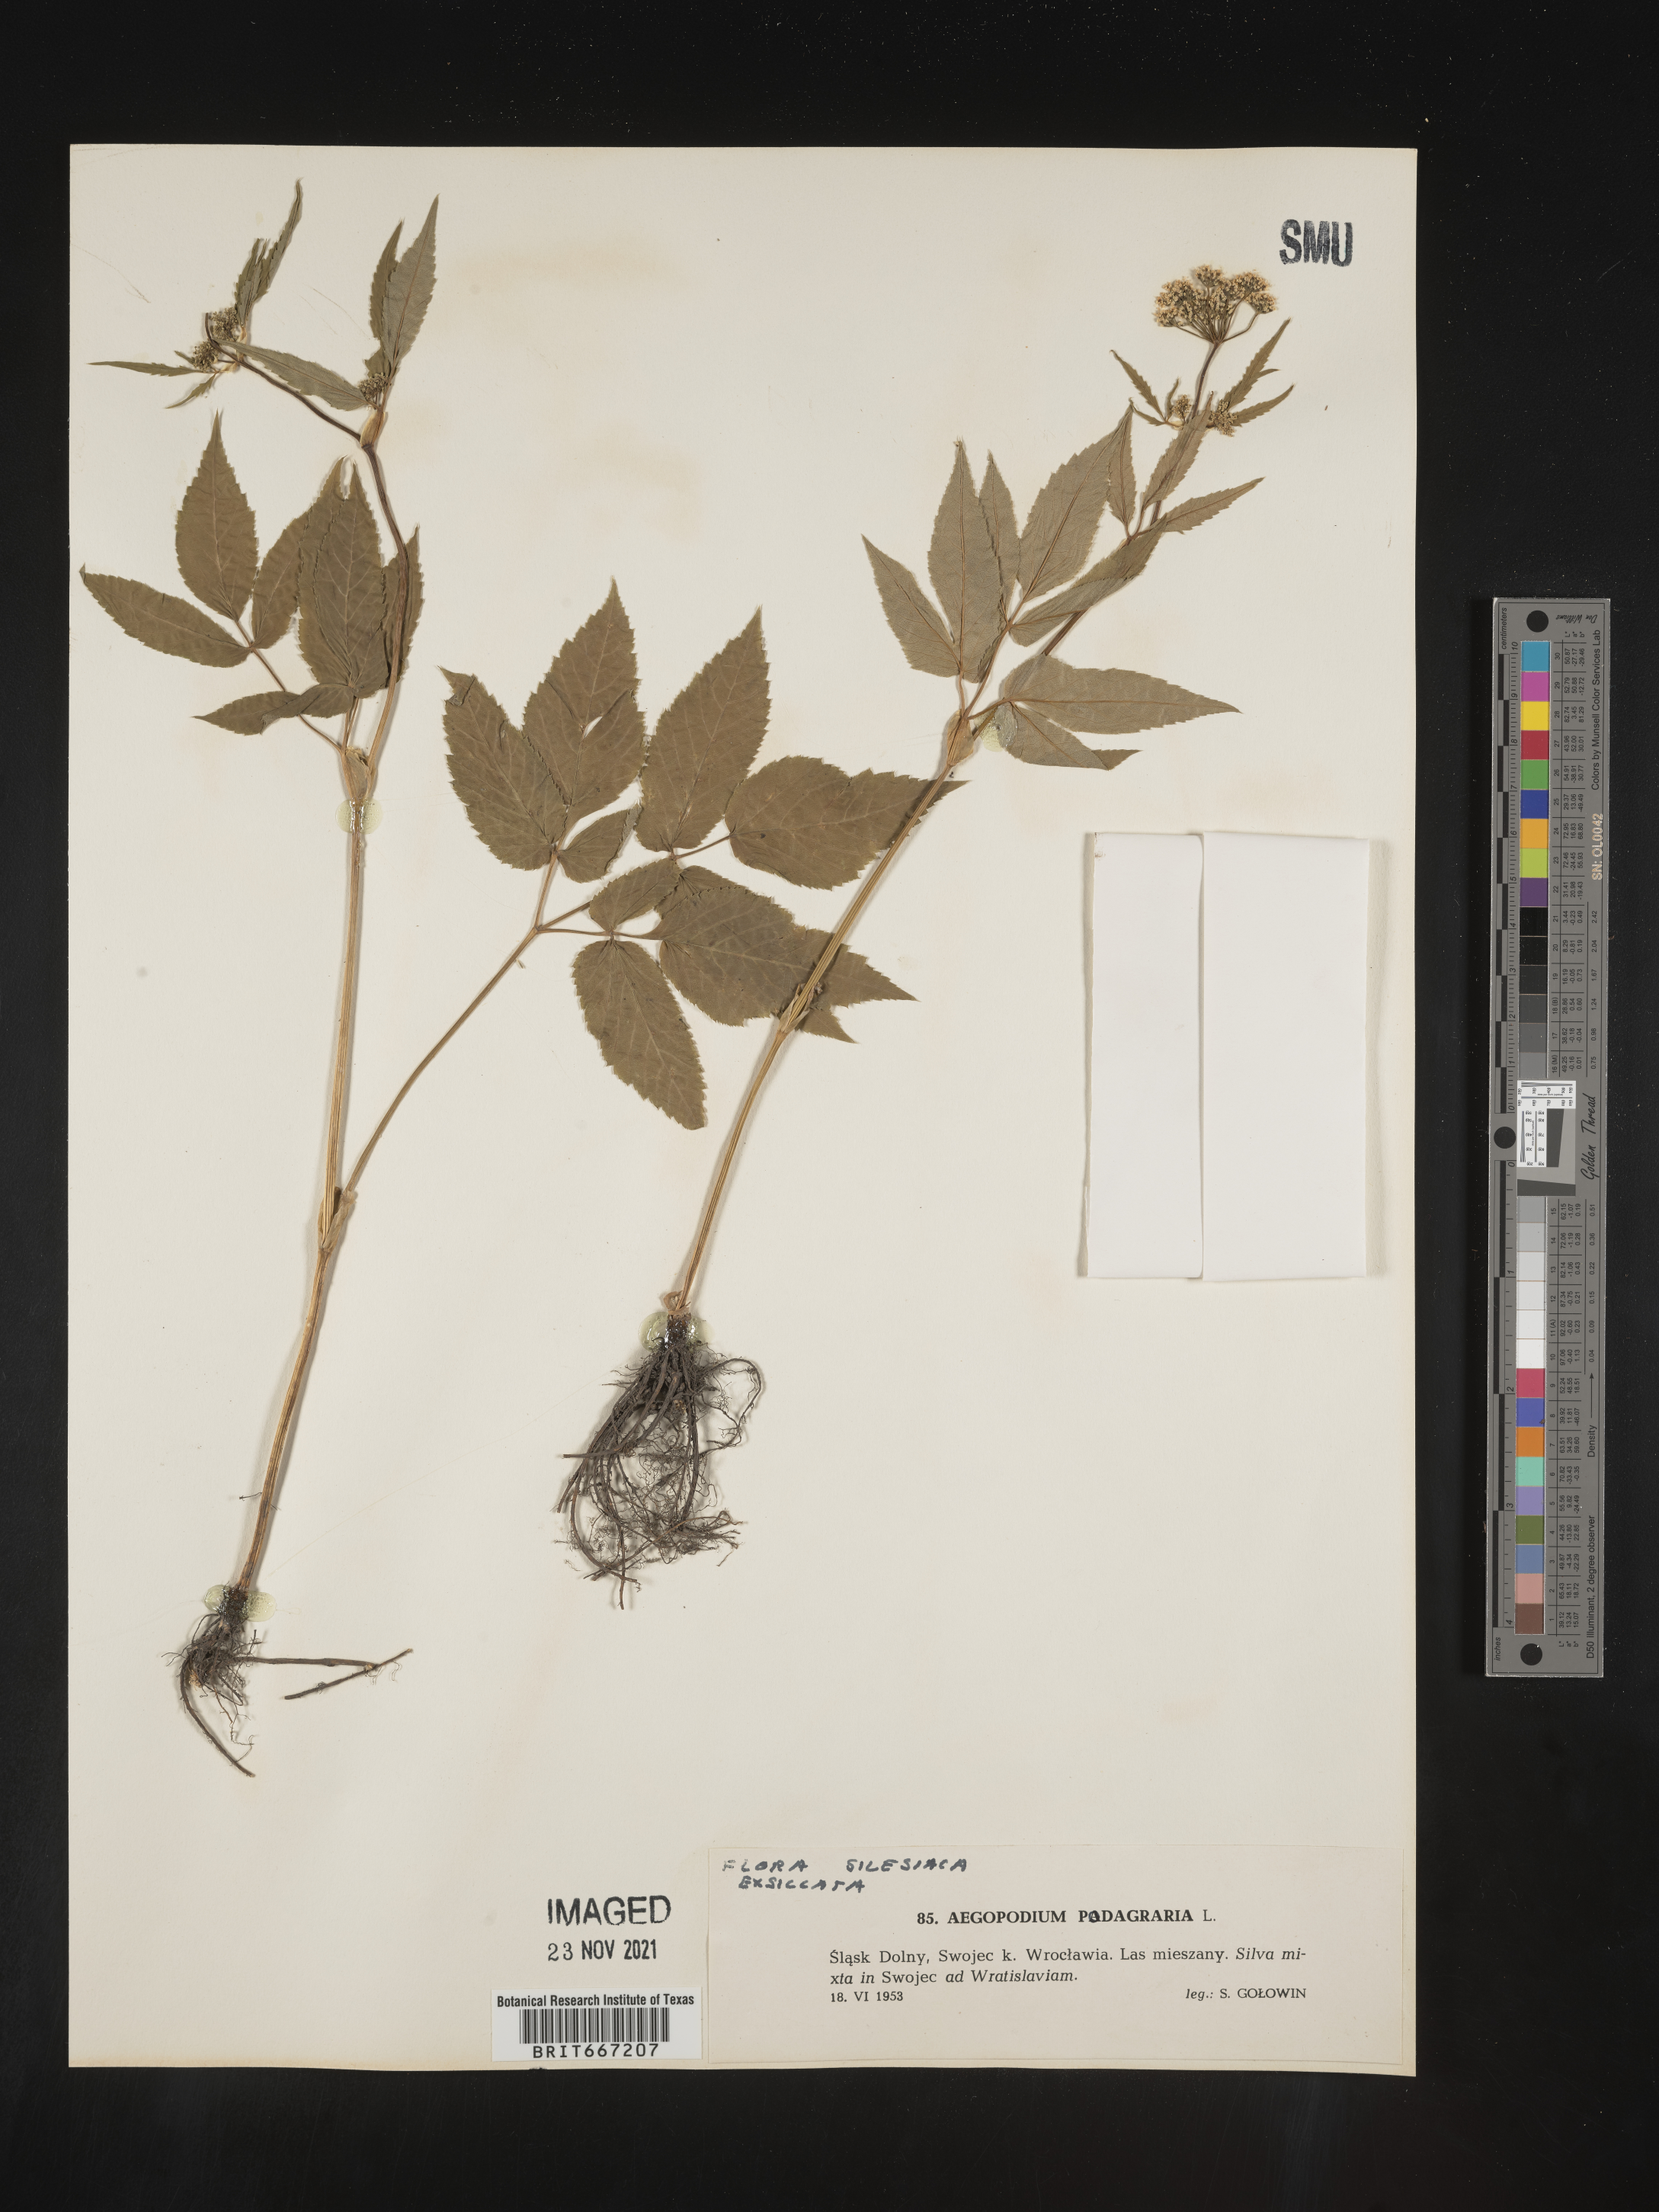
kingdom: Plantae
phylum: Tracheophyta
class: Magnoliopsida
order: Apiales
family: Apiaceae
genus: Aegopodium
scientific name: Aegopodium
